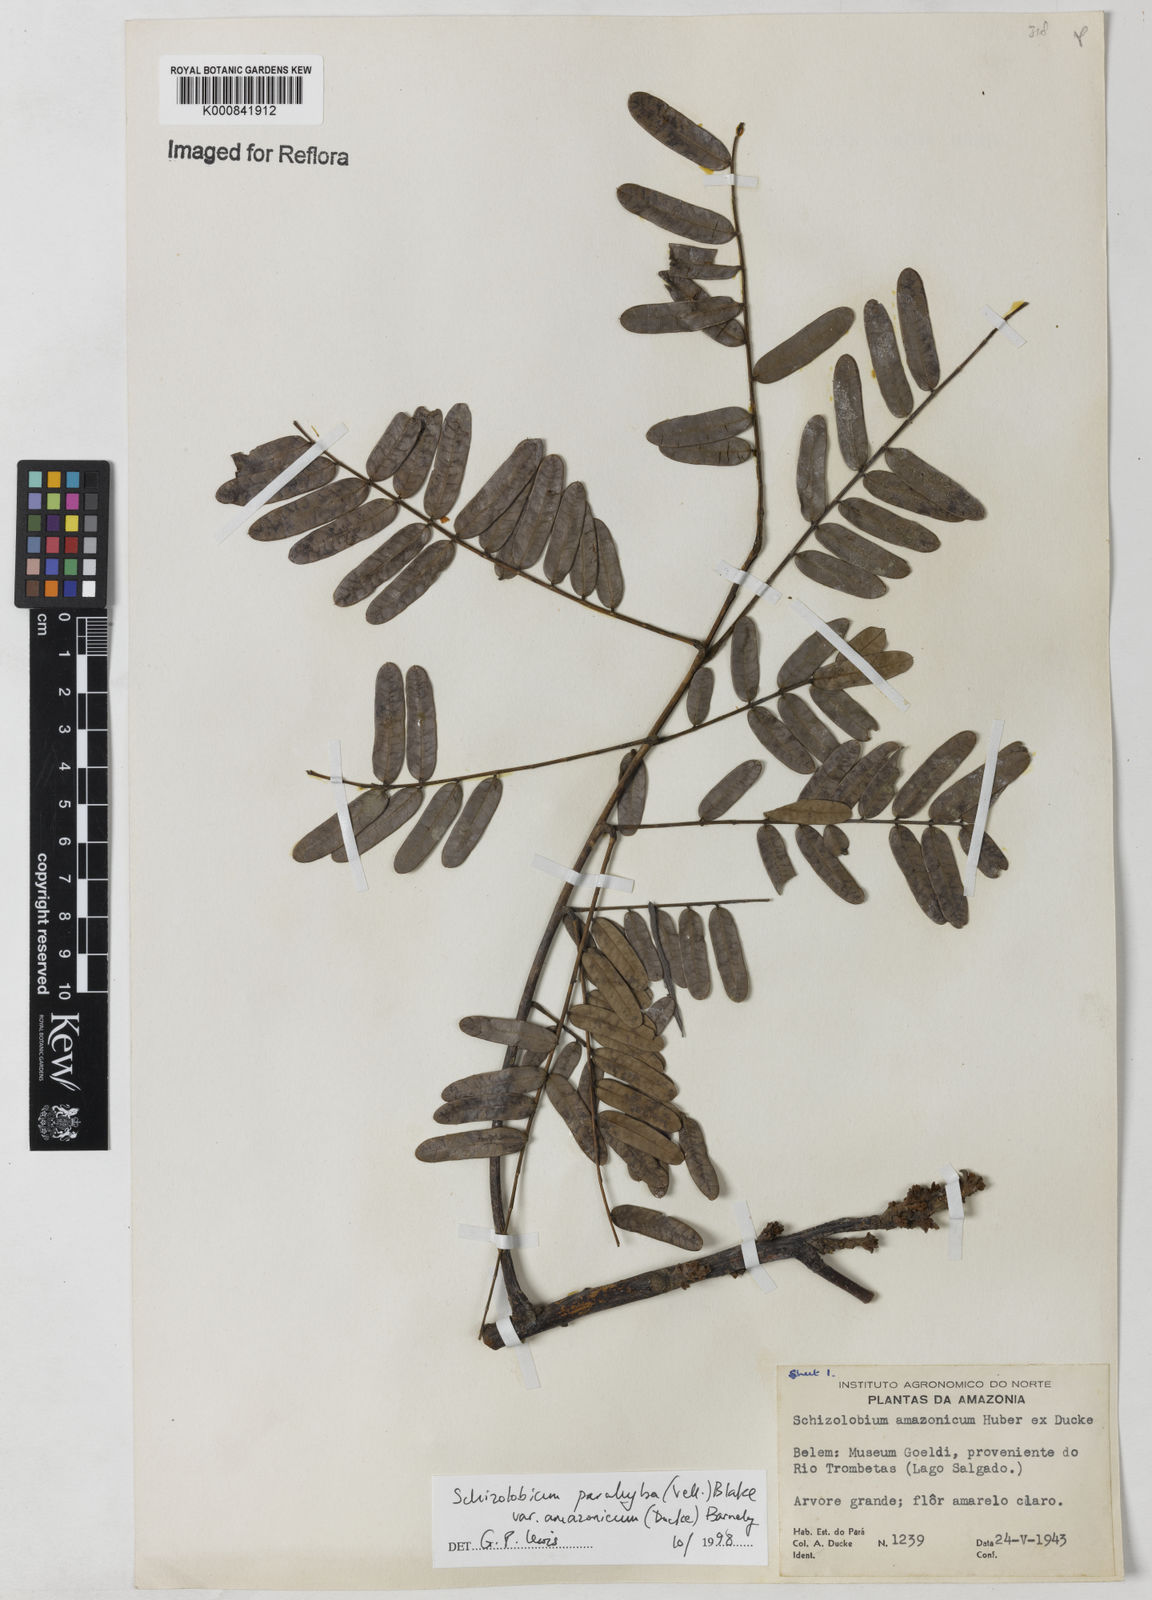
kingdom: Plantae
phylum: Tracheophyta
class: Magnoliopsida
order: Fabales
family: Fabaceae
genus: Schizolobium
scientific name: Schizolobium parahyba
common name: Brazilian firetree
